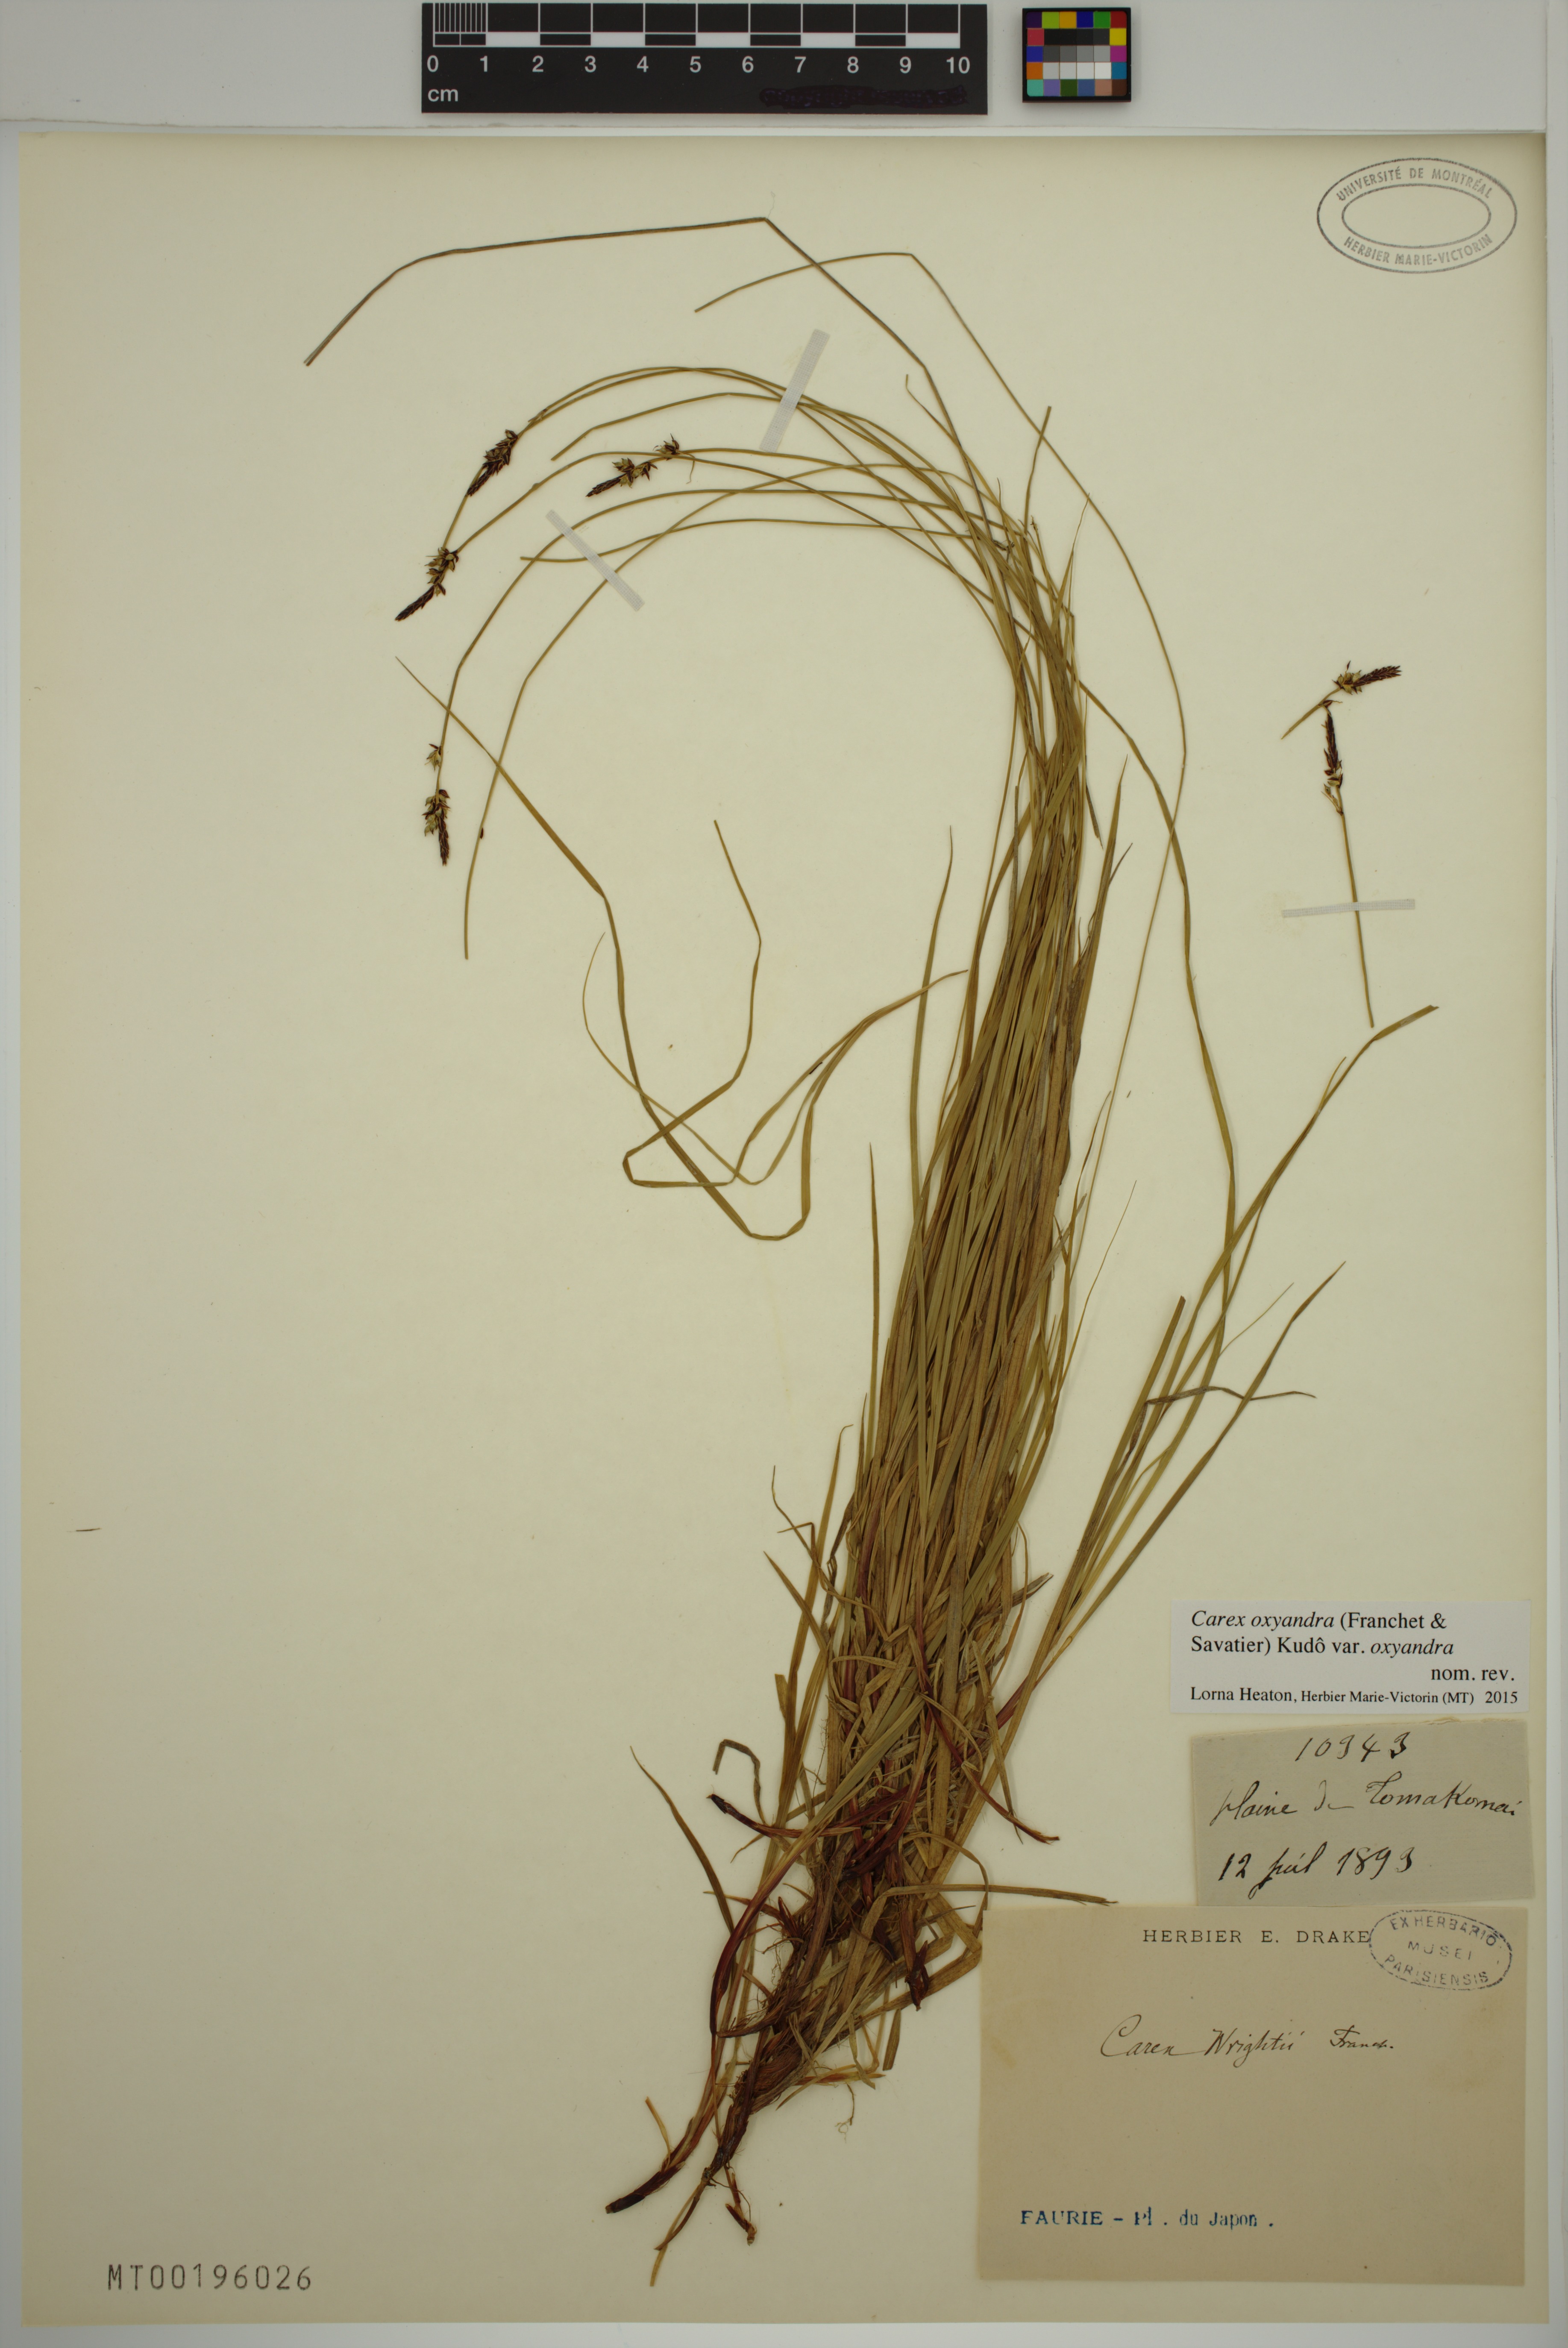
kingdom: Plantae
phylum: Tracheophyta
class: Liliopsida
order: Poales
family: Cyperaceae
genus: Carex
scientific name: Carex oxyandra
